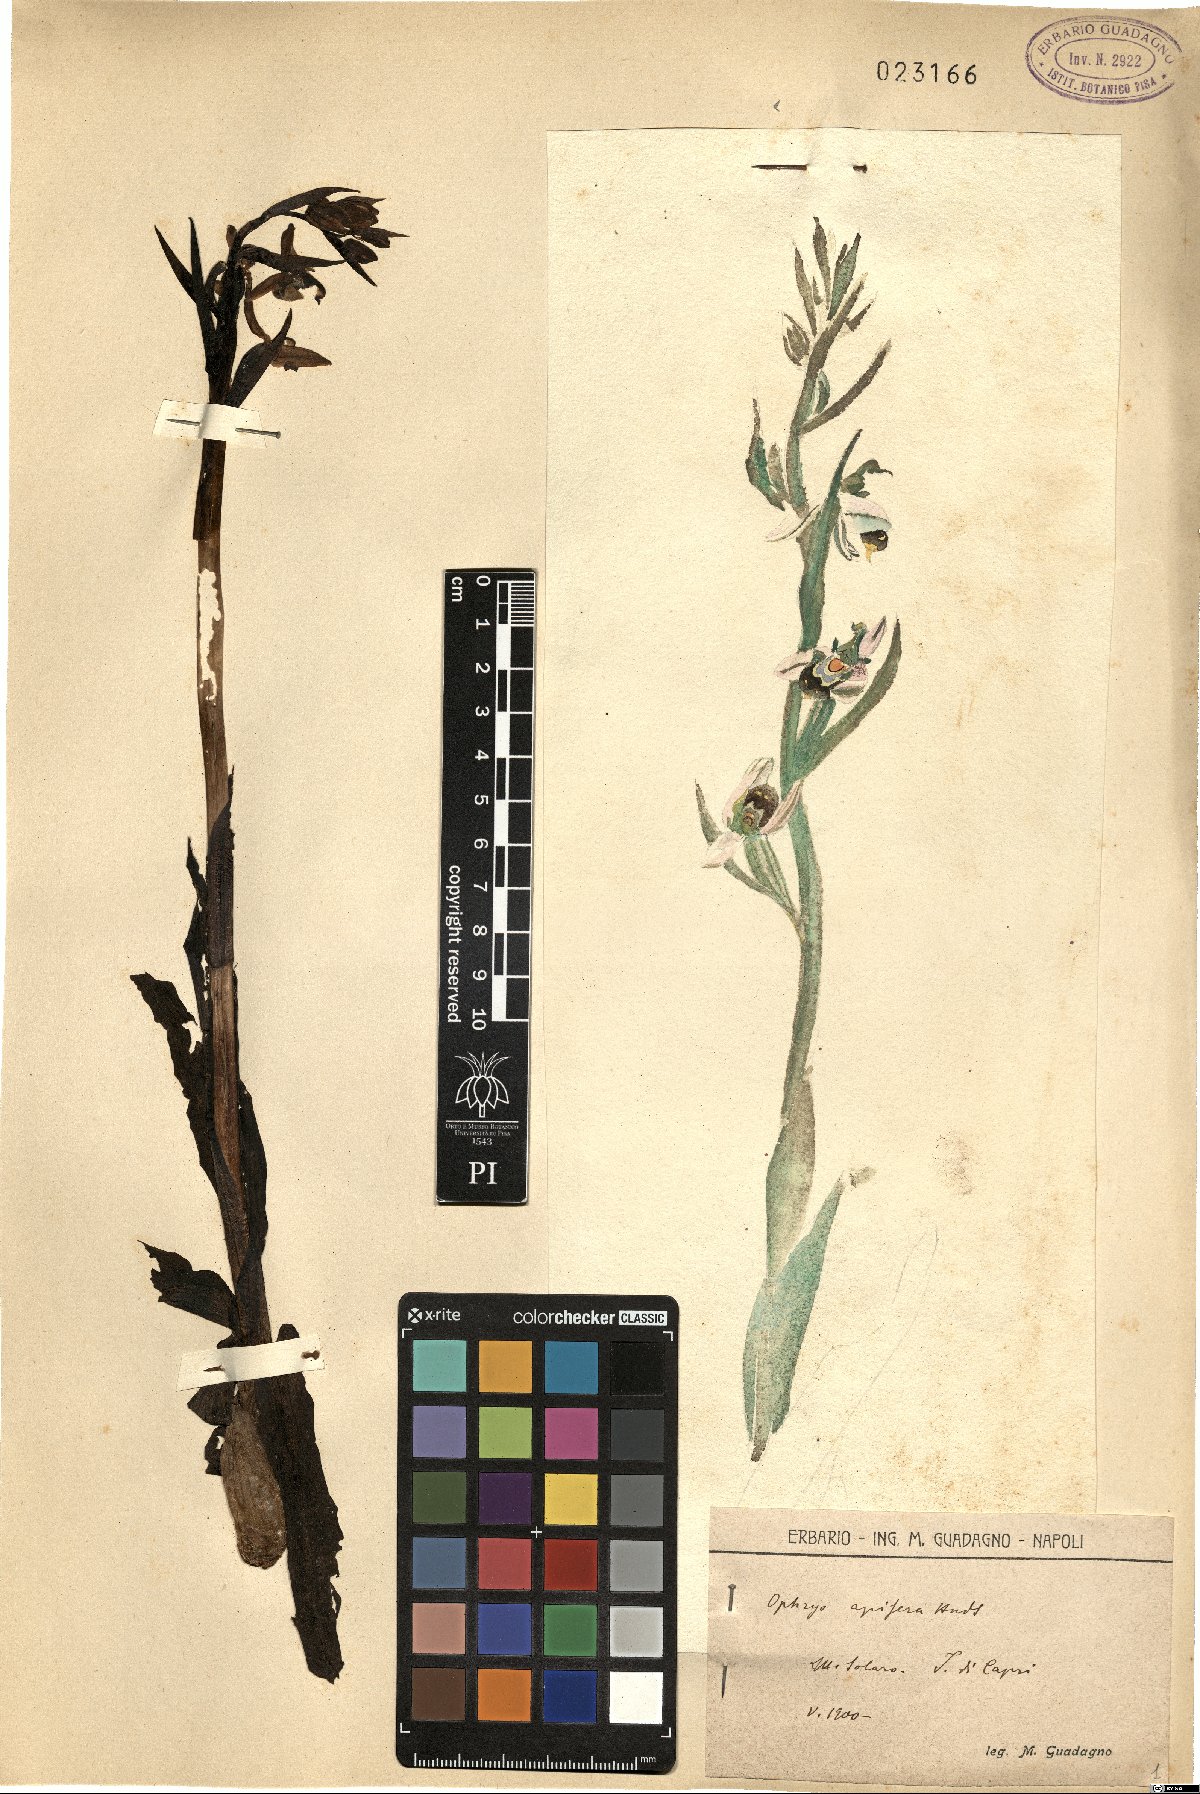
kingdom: Plantae
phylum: Tracheophyta
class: Liliopsida
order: Asparagales
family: Orchidaceae
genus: Ophrys
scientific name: Ophrys apifera
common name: Bee orchid
